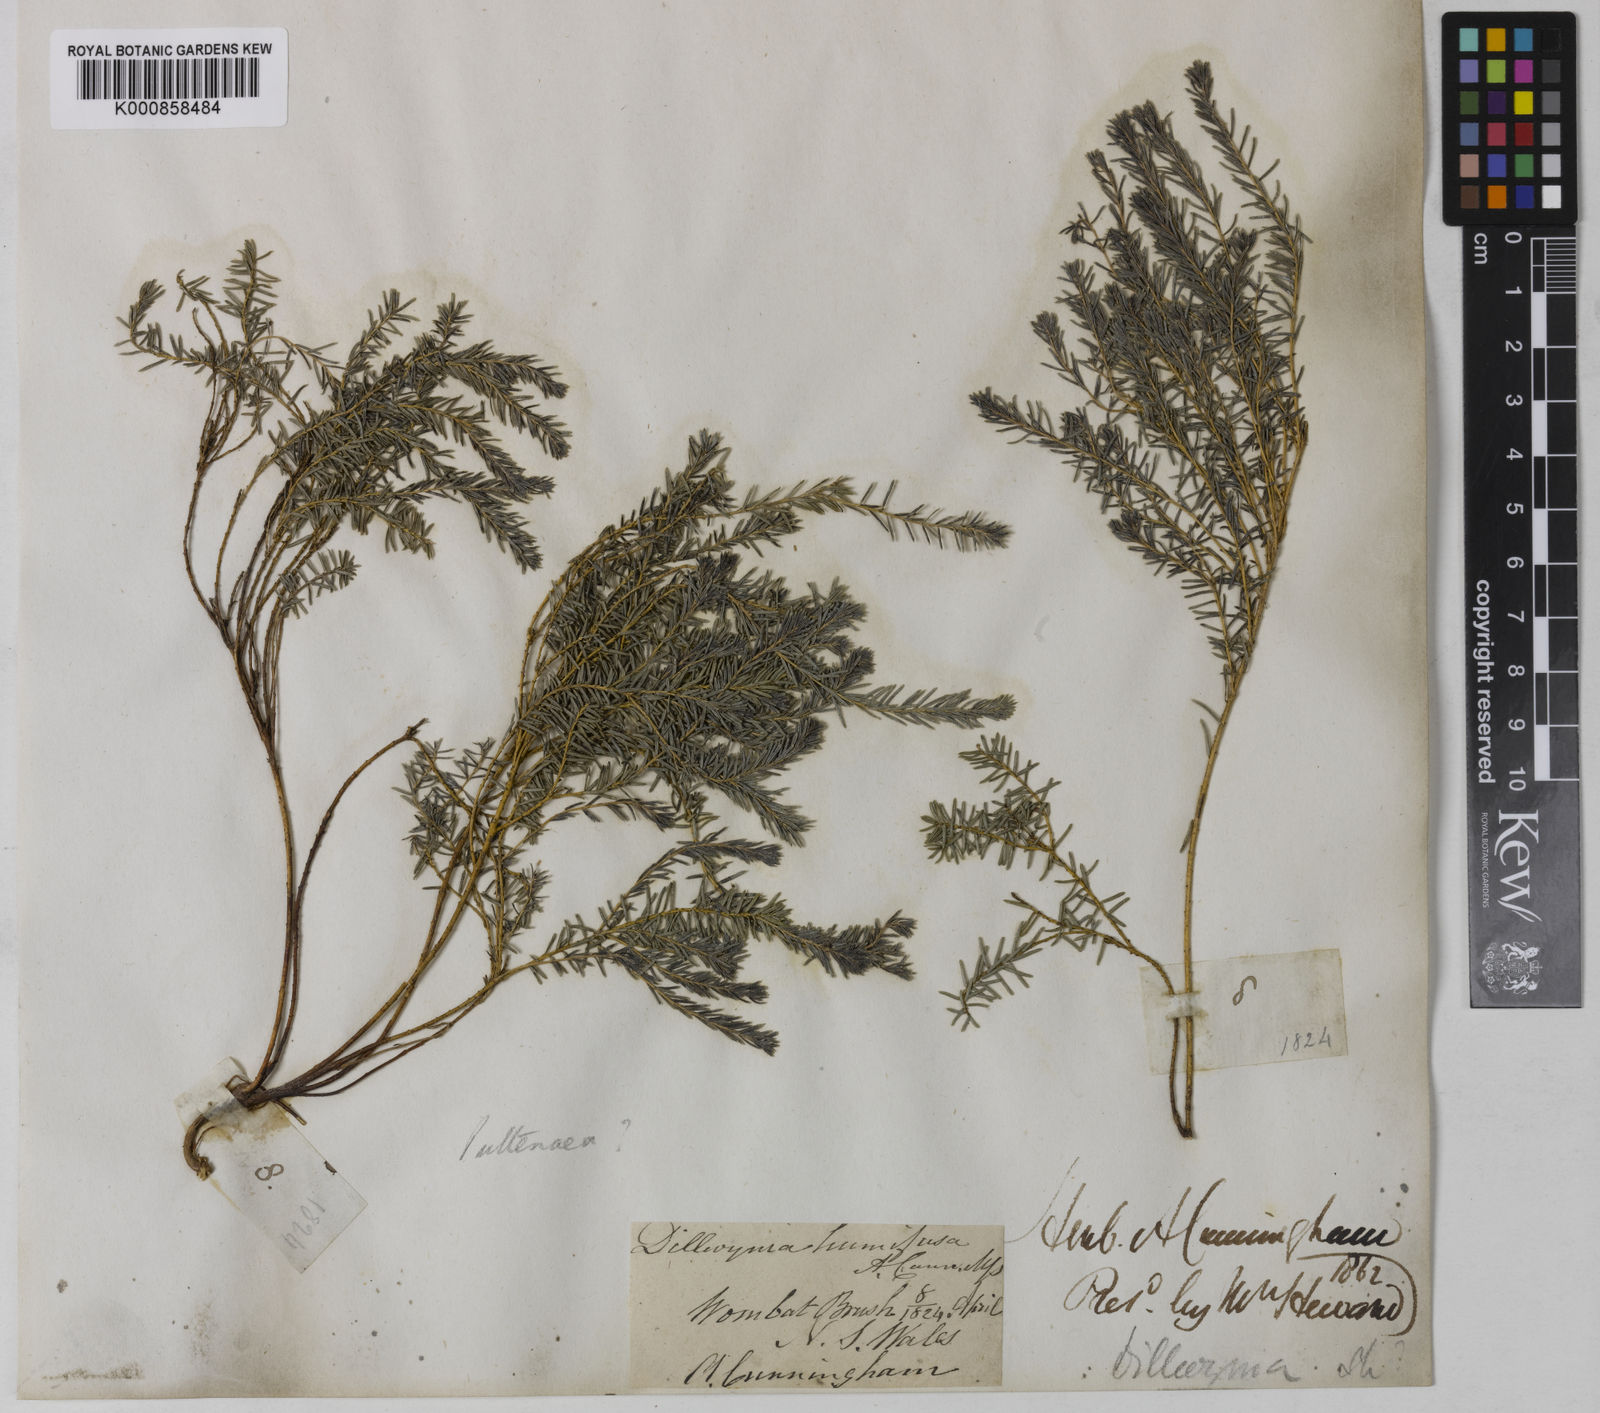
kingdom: Plantae
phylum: Tracheophyta
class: Magnoliopsida
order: Fabales
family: Fabaceae
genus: Phyllota
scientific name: Phyllota humifusa
